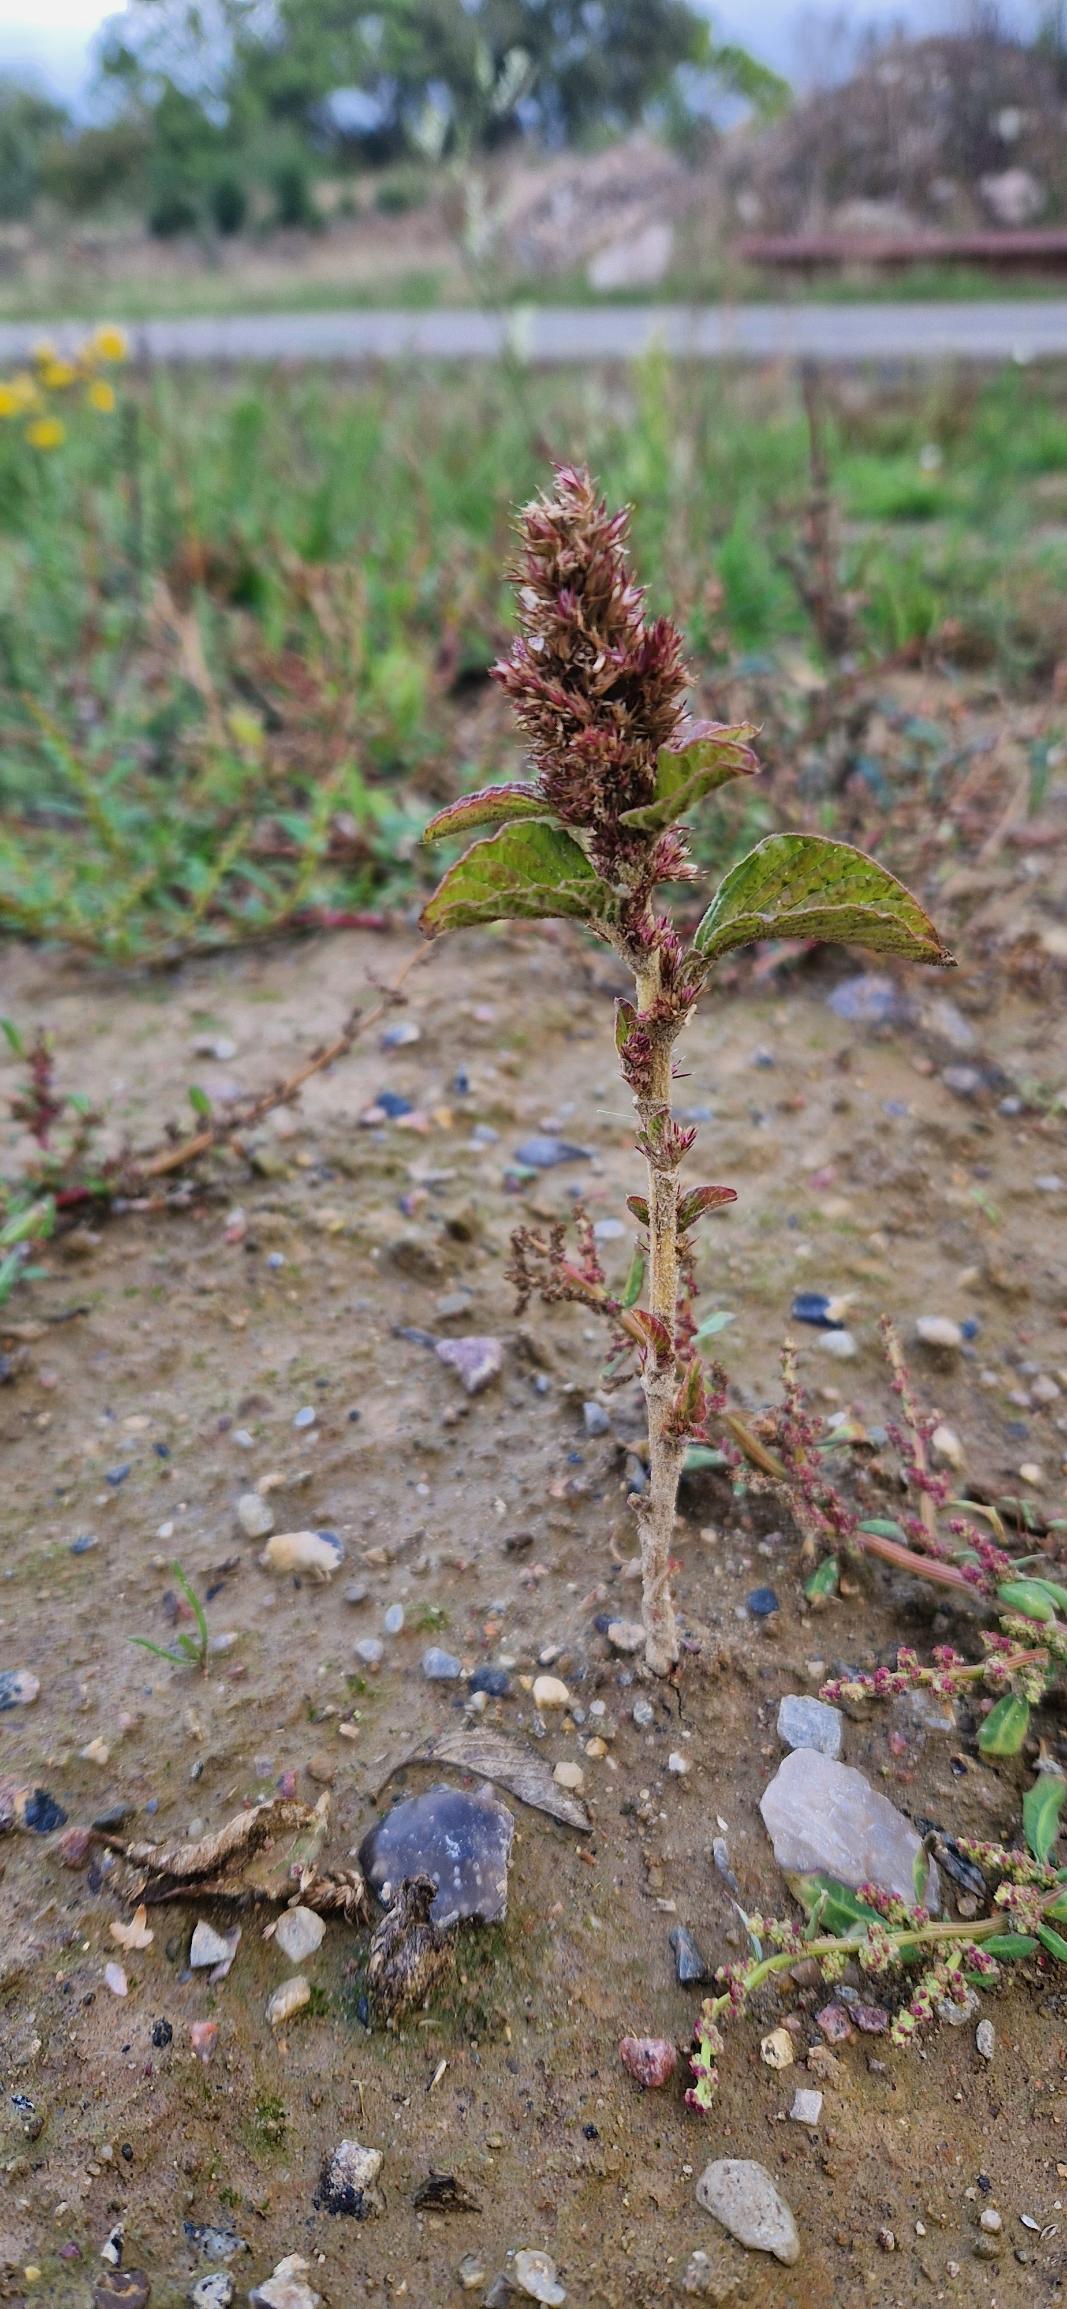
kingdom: Plantae
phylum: Tracheophyta
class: Magnoliopsida
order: Caryophyllales
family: Amaranthaceae
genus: Amaranthus
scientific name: Amaranthus retroflexus
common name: Opret amarant
